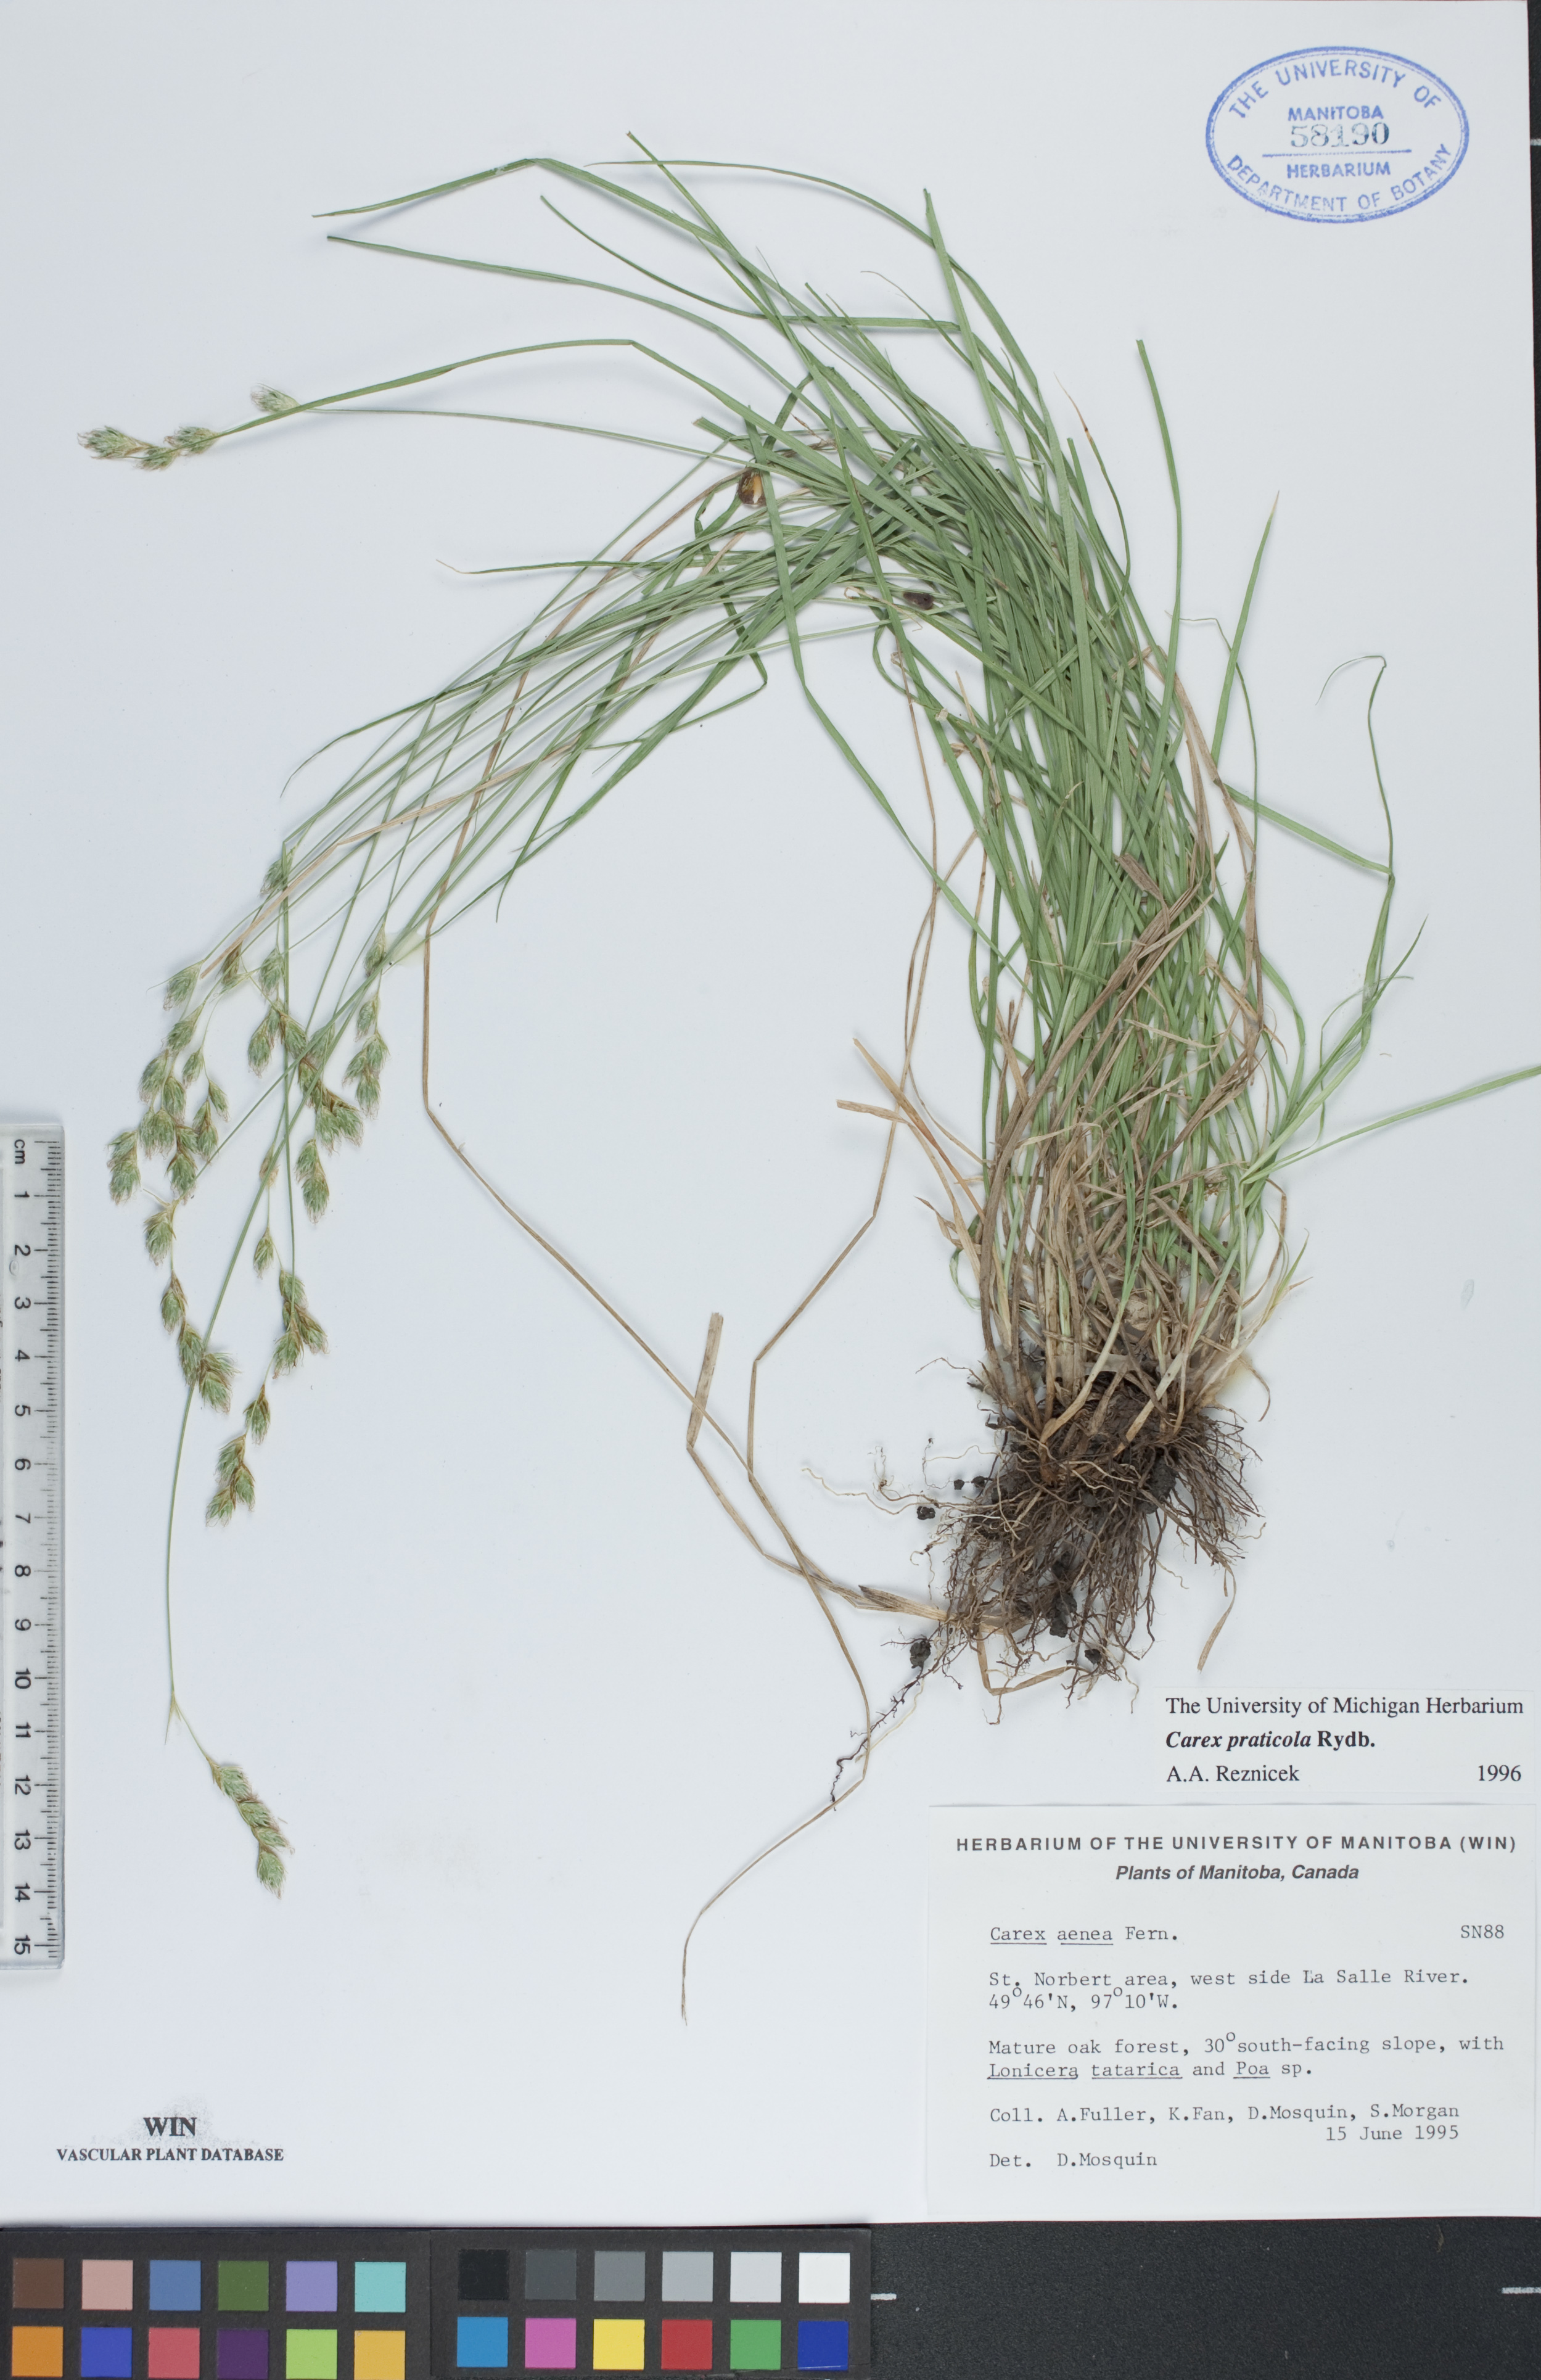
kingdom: Plantae
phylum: Tracheophyta
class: Liliopsida
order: Poales
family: Cyperaceae
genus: Carex
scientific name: Carex praticola
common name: Large-fruited oval sedge
